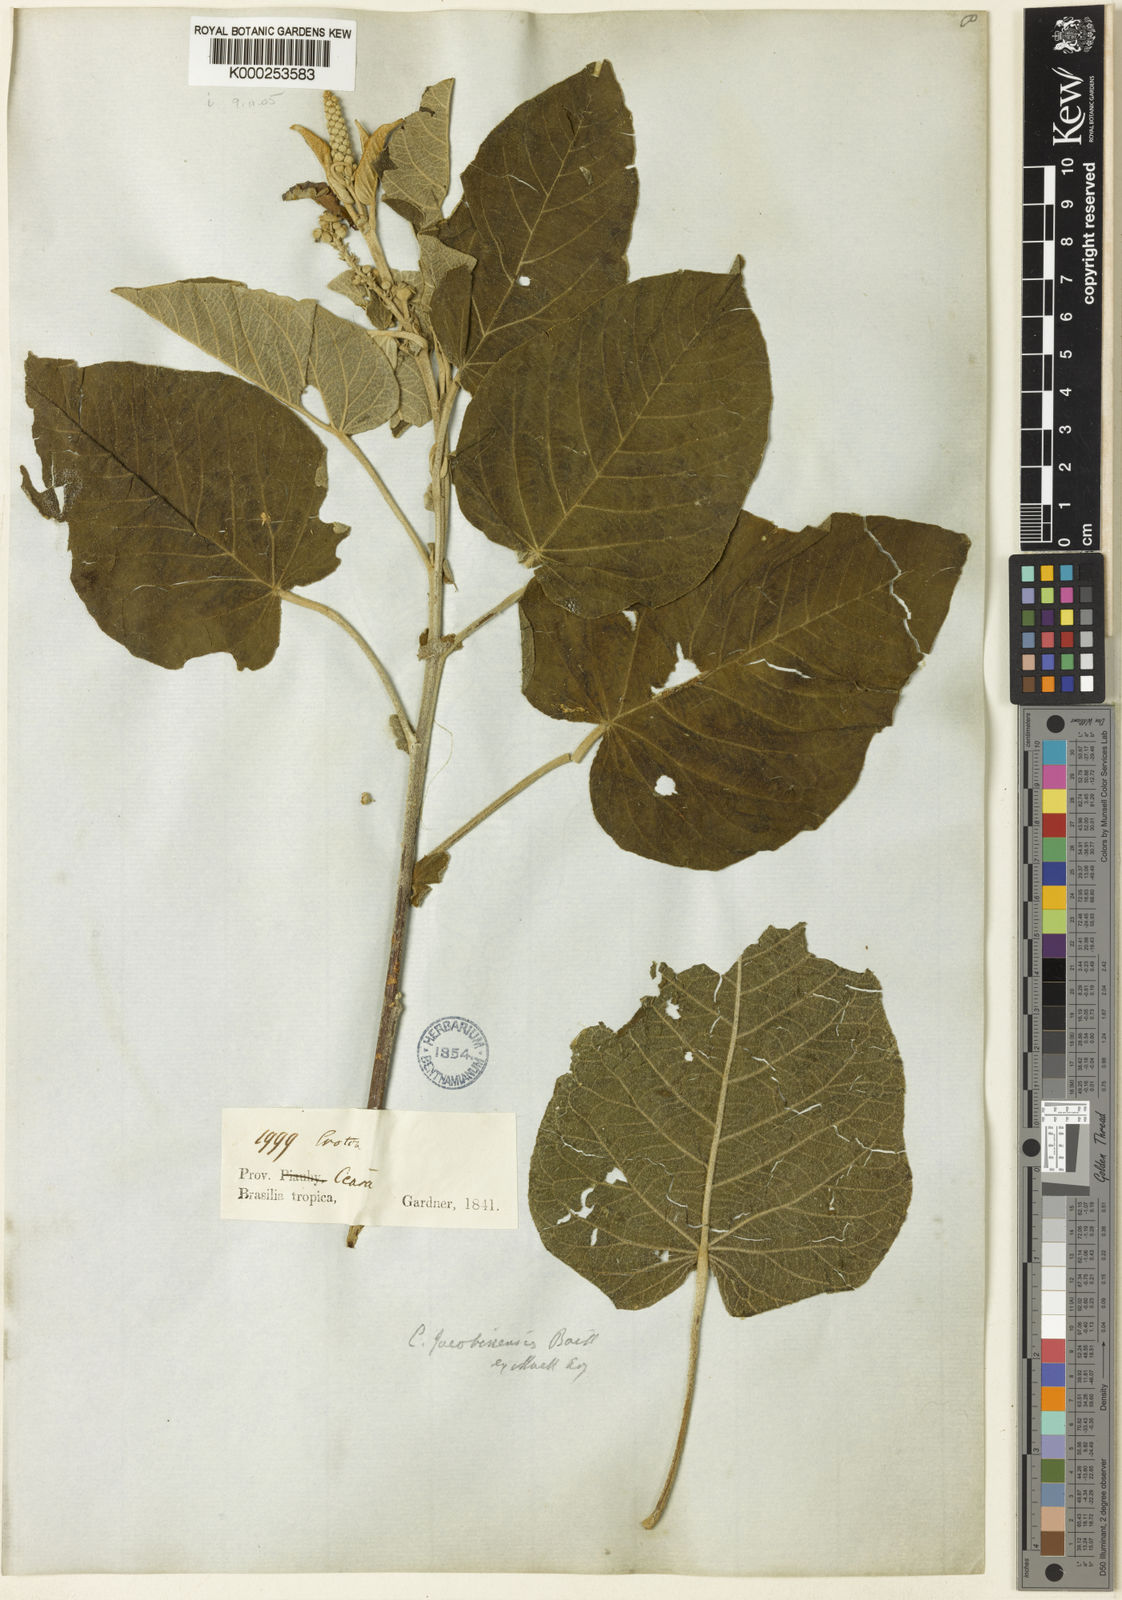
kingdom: Plantae
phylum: Tracheophyta
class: Magnoliopsida
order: Malpighiales
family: Euphorbiaceae
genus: Croton
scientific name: Croton jacobinensis
